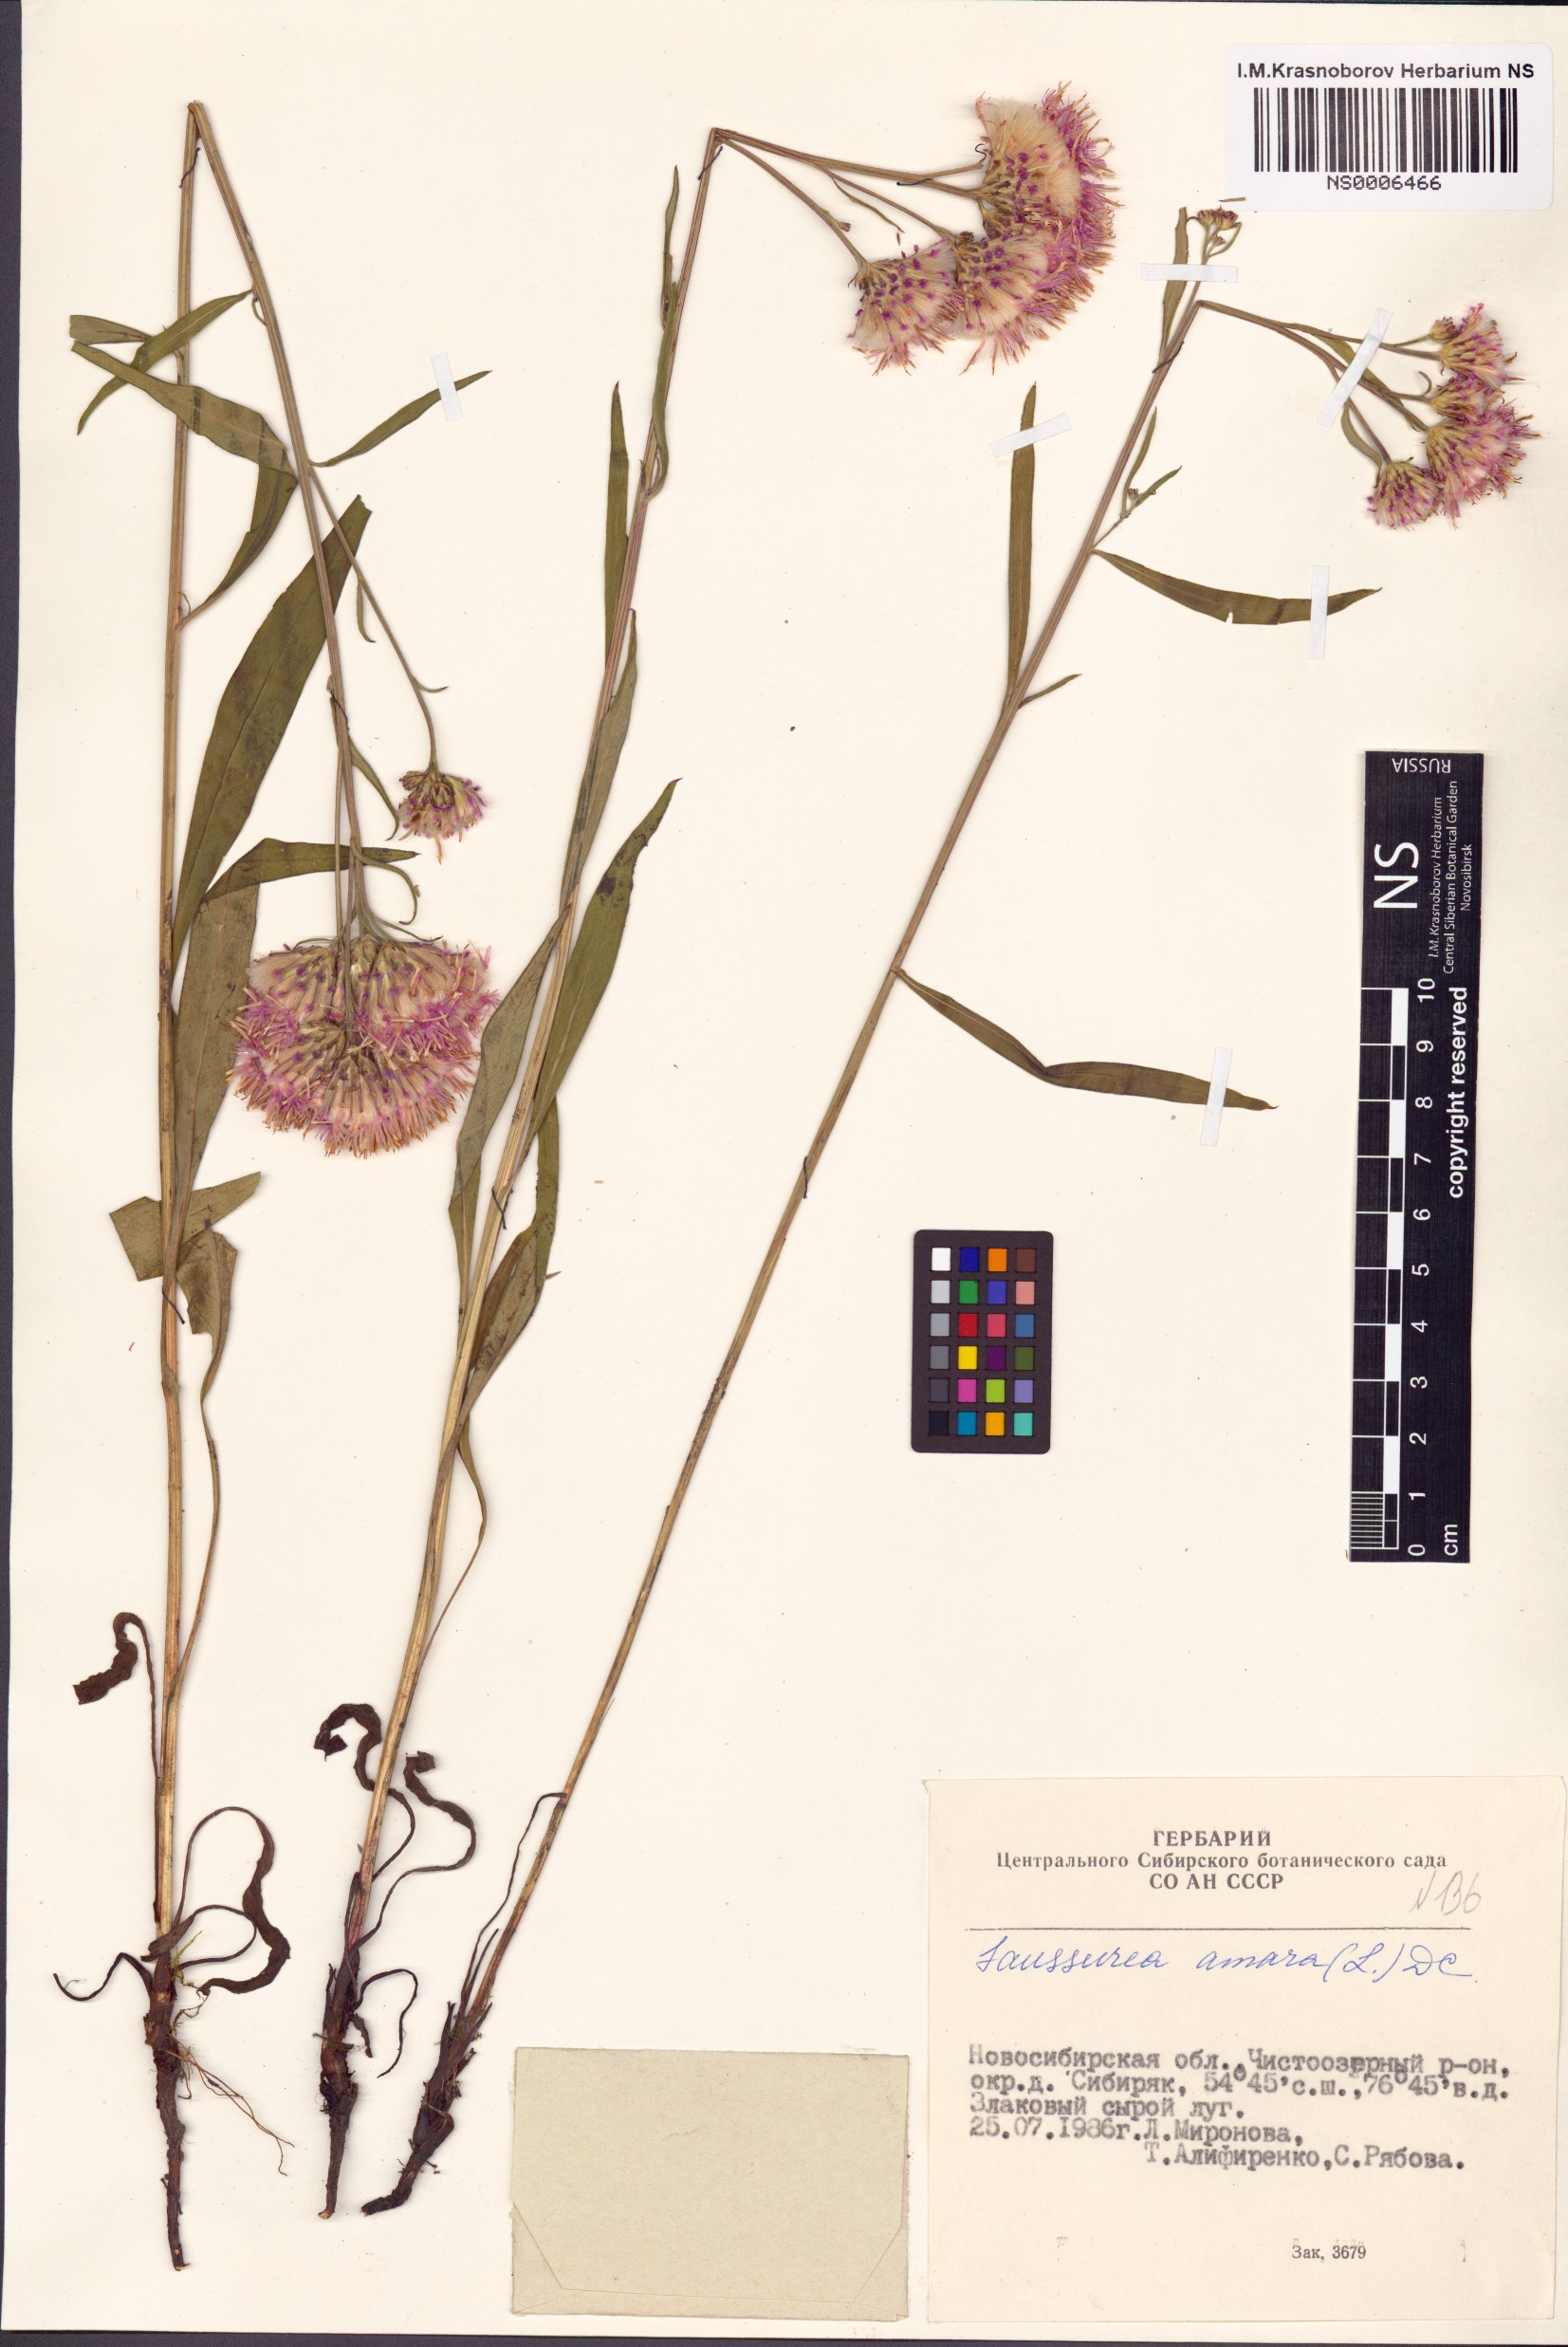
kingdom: Plantae
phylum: Tracheophyta
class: Magnoliopsida
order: Asterales
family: Asteraceae
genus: Saussurea
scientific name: Saussurea amara
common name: Alberta sawwort
